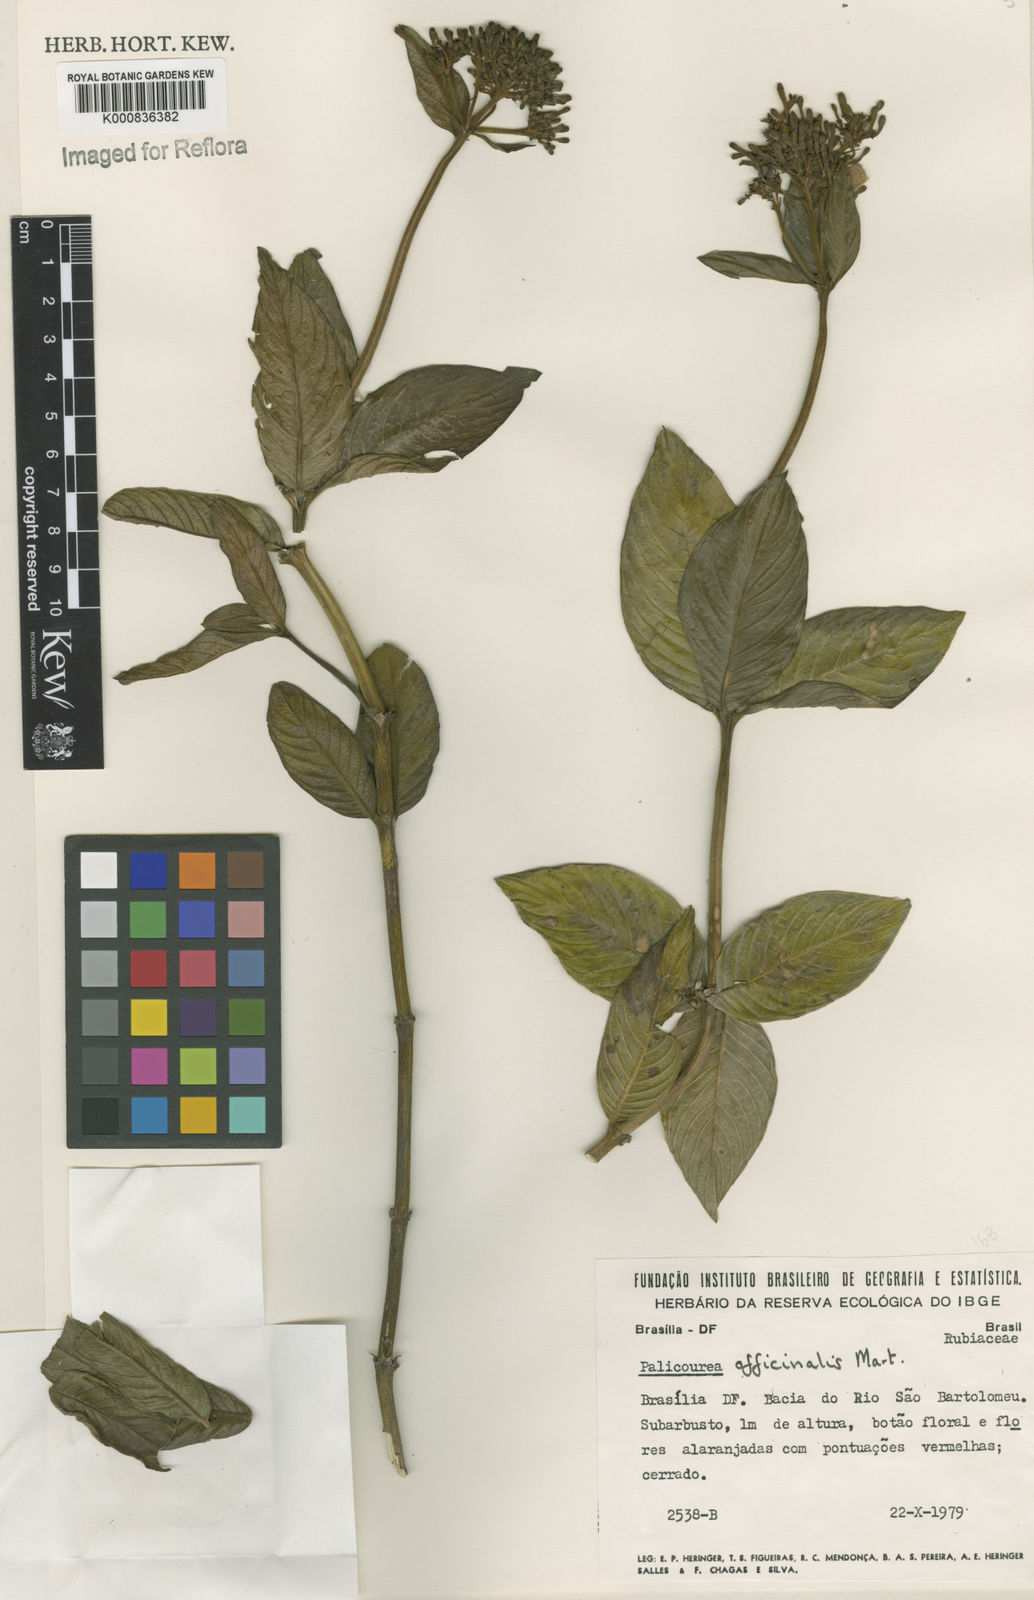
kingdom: Plantae
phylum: Tracheophyta
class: Magnoliopsida
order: Gentianales
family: Rubiaceae
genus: Palicourea
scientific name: Palicourea officinalis
